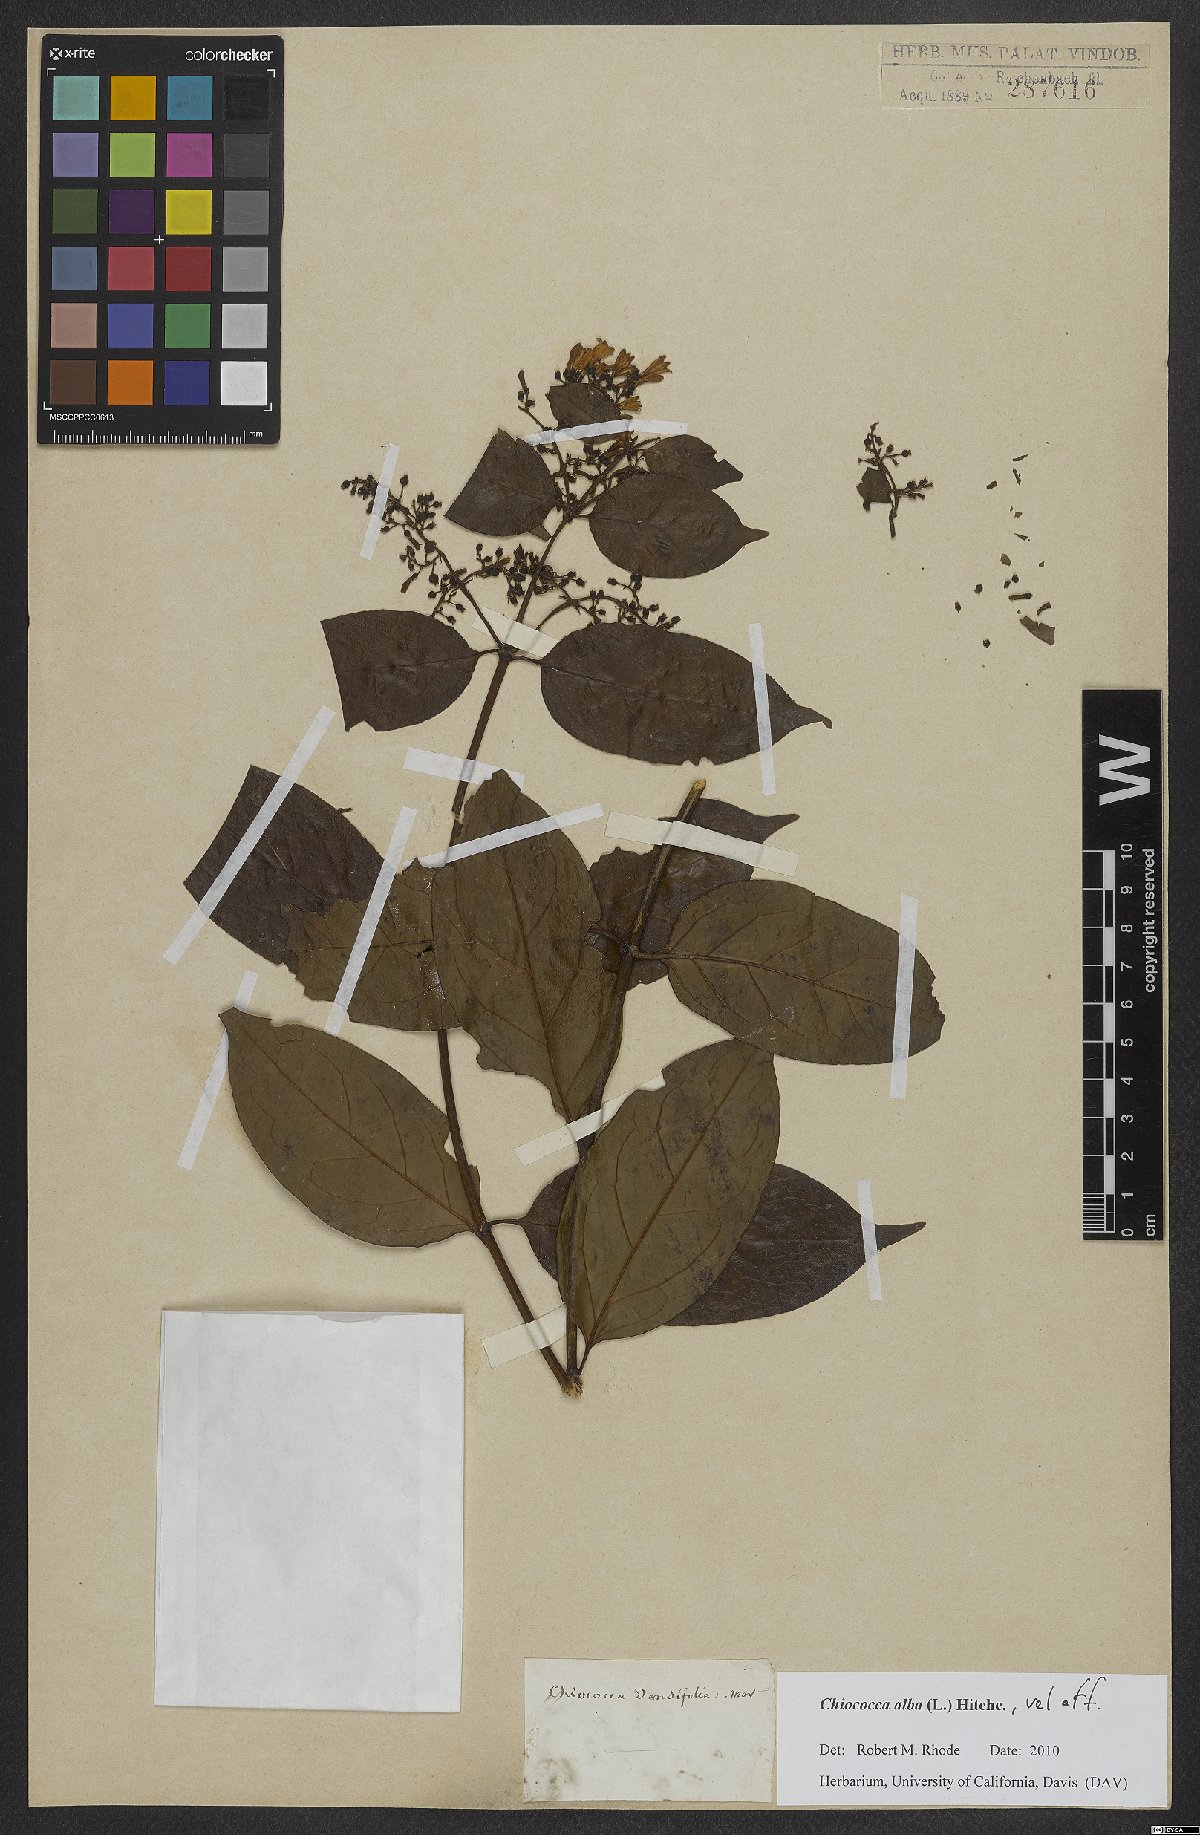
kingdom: Plantae
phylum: Tracheophyta
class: Magnoliopsida
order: Gentianales
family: Rubiaceae
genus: Chiococca
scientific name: Chiococca alba
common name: Snowberry
